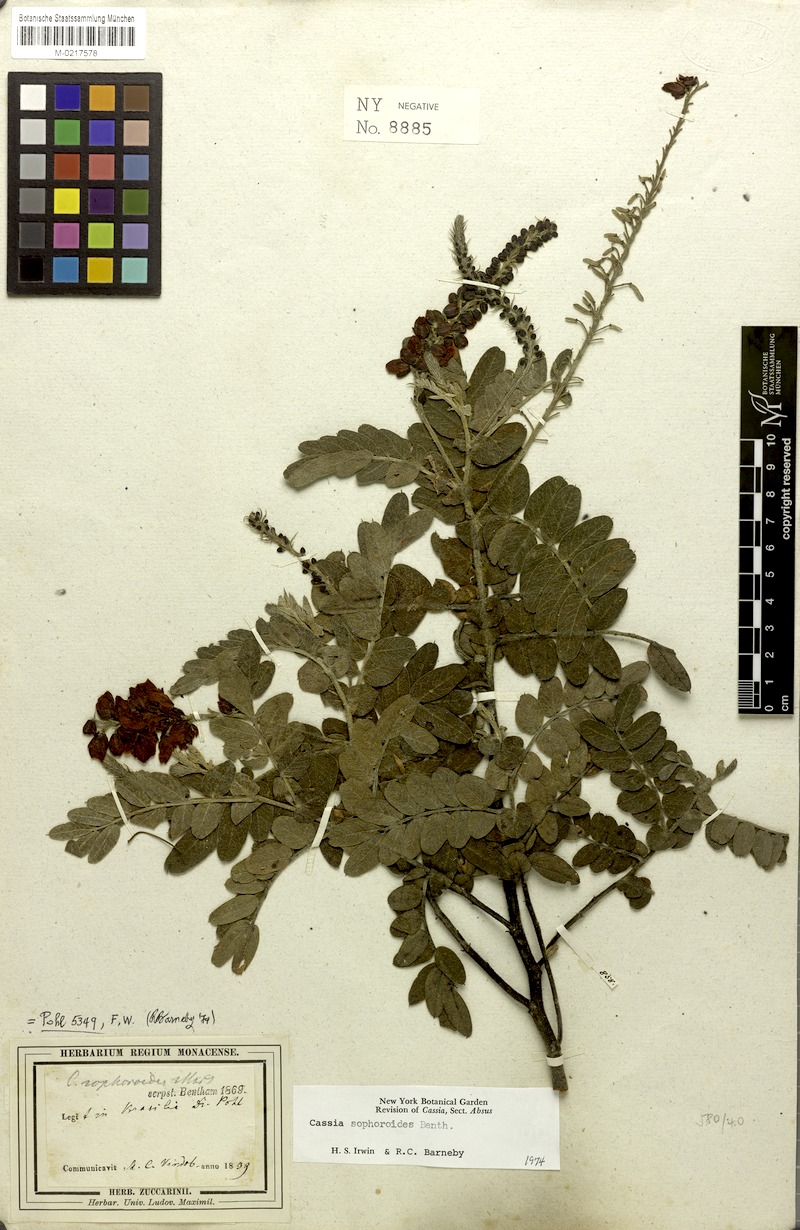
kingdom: Plantae
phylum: Tracheophyta
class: Magnoliopsida
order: Fabales
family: Fabaceae
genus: Chamaecrista
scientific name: Chamaecrista sophoroides
